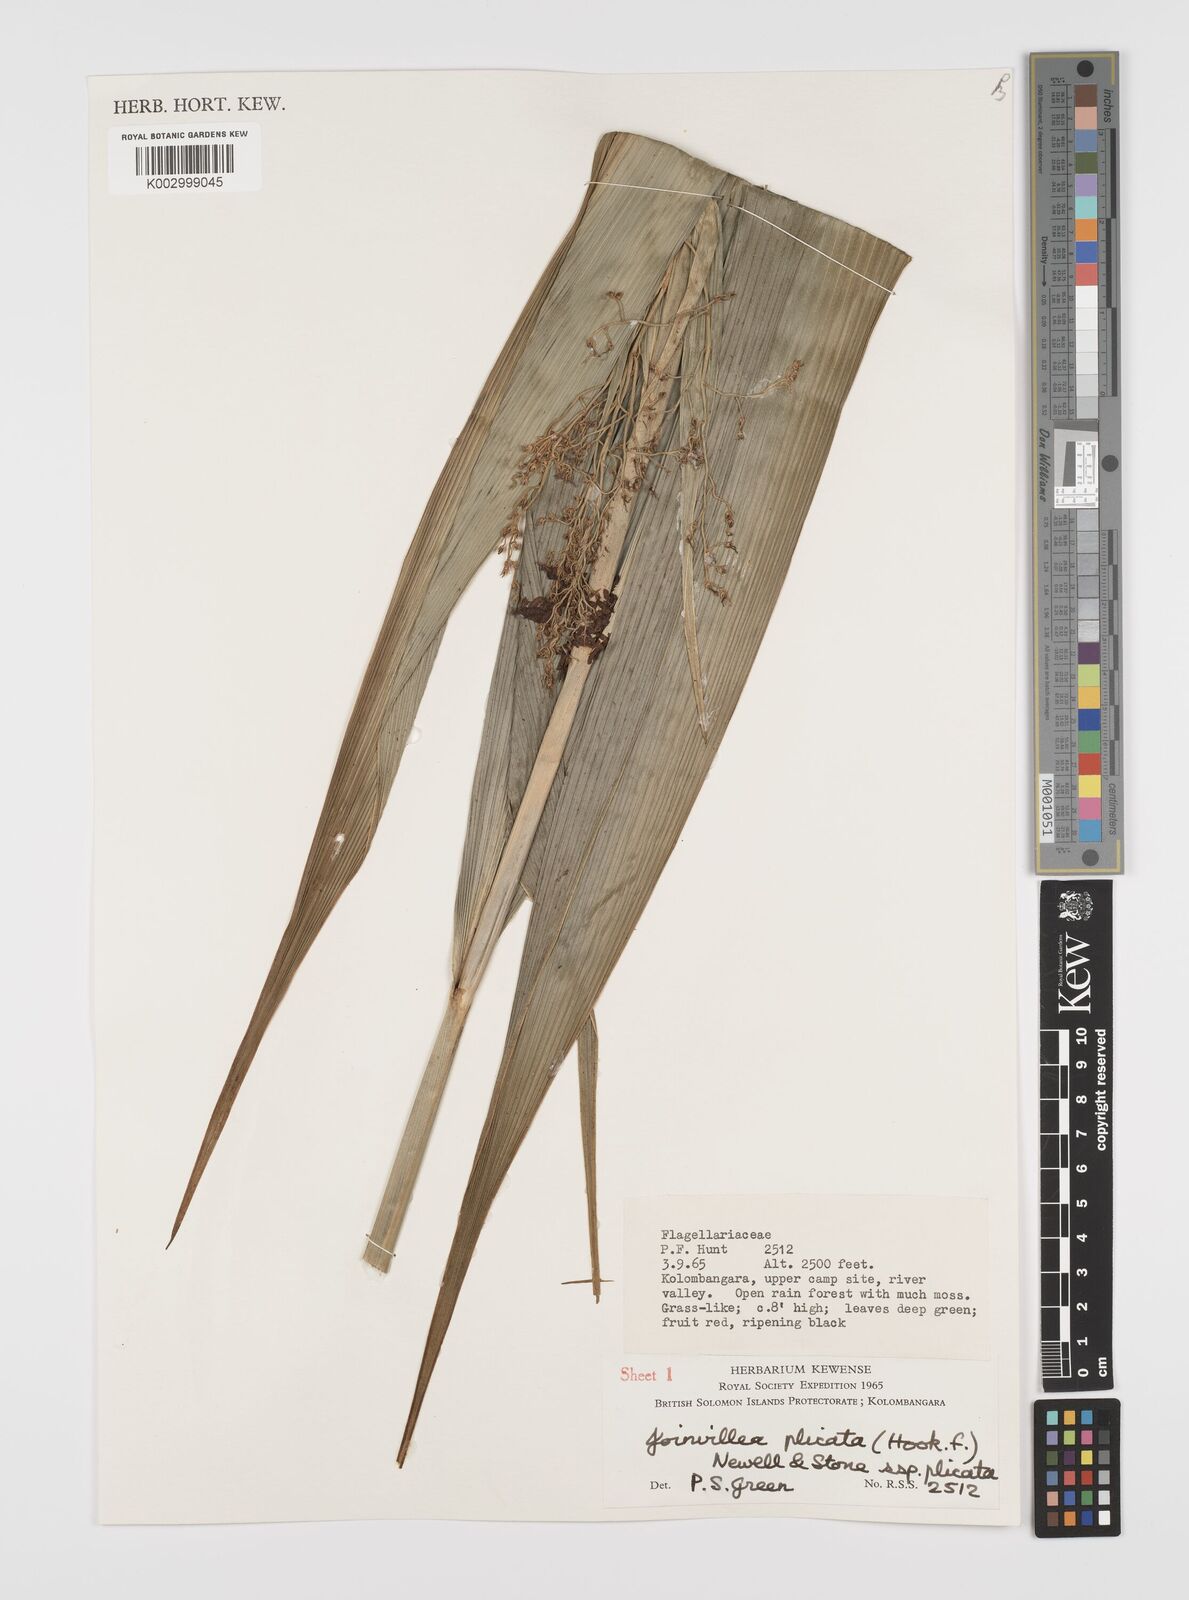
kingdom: Plantae
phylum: Tracheophyta
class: Liliopsida
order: Poales
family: Joinvilleaceae
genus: Joinvillea
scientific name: Joinvillea plicata
